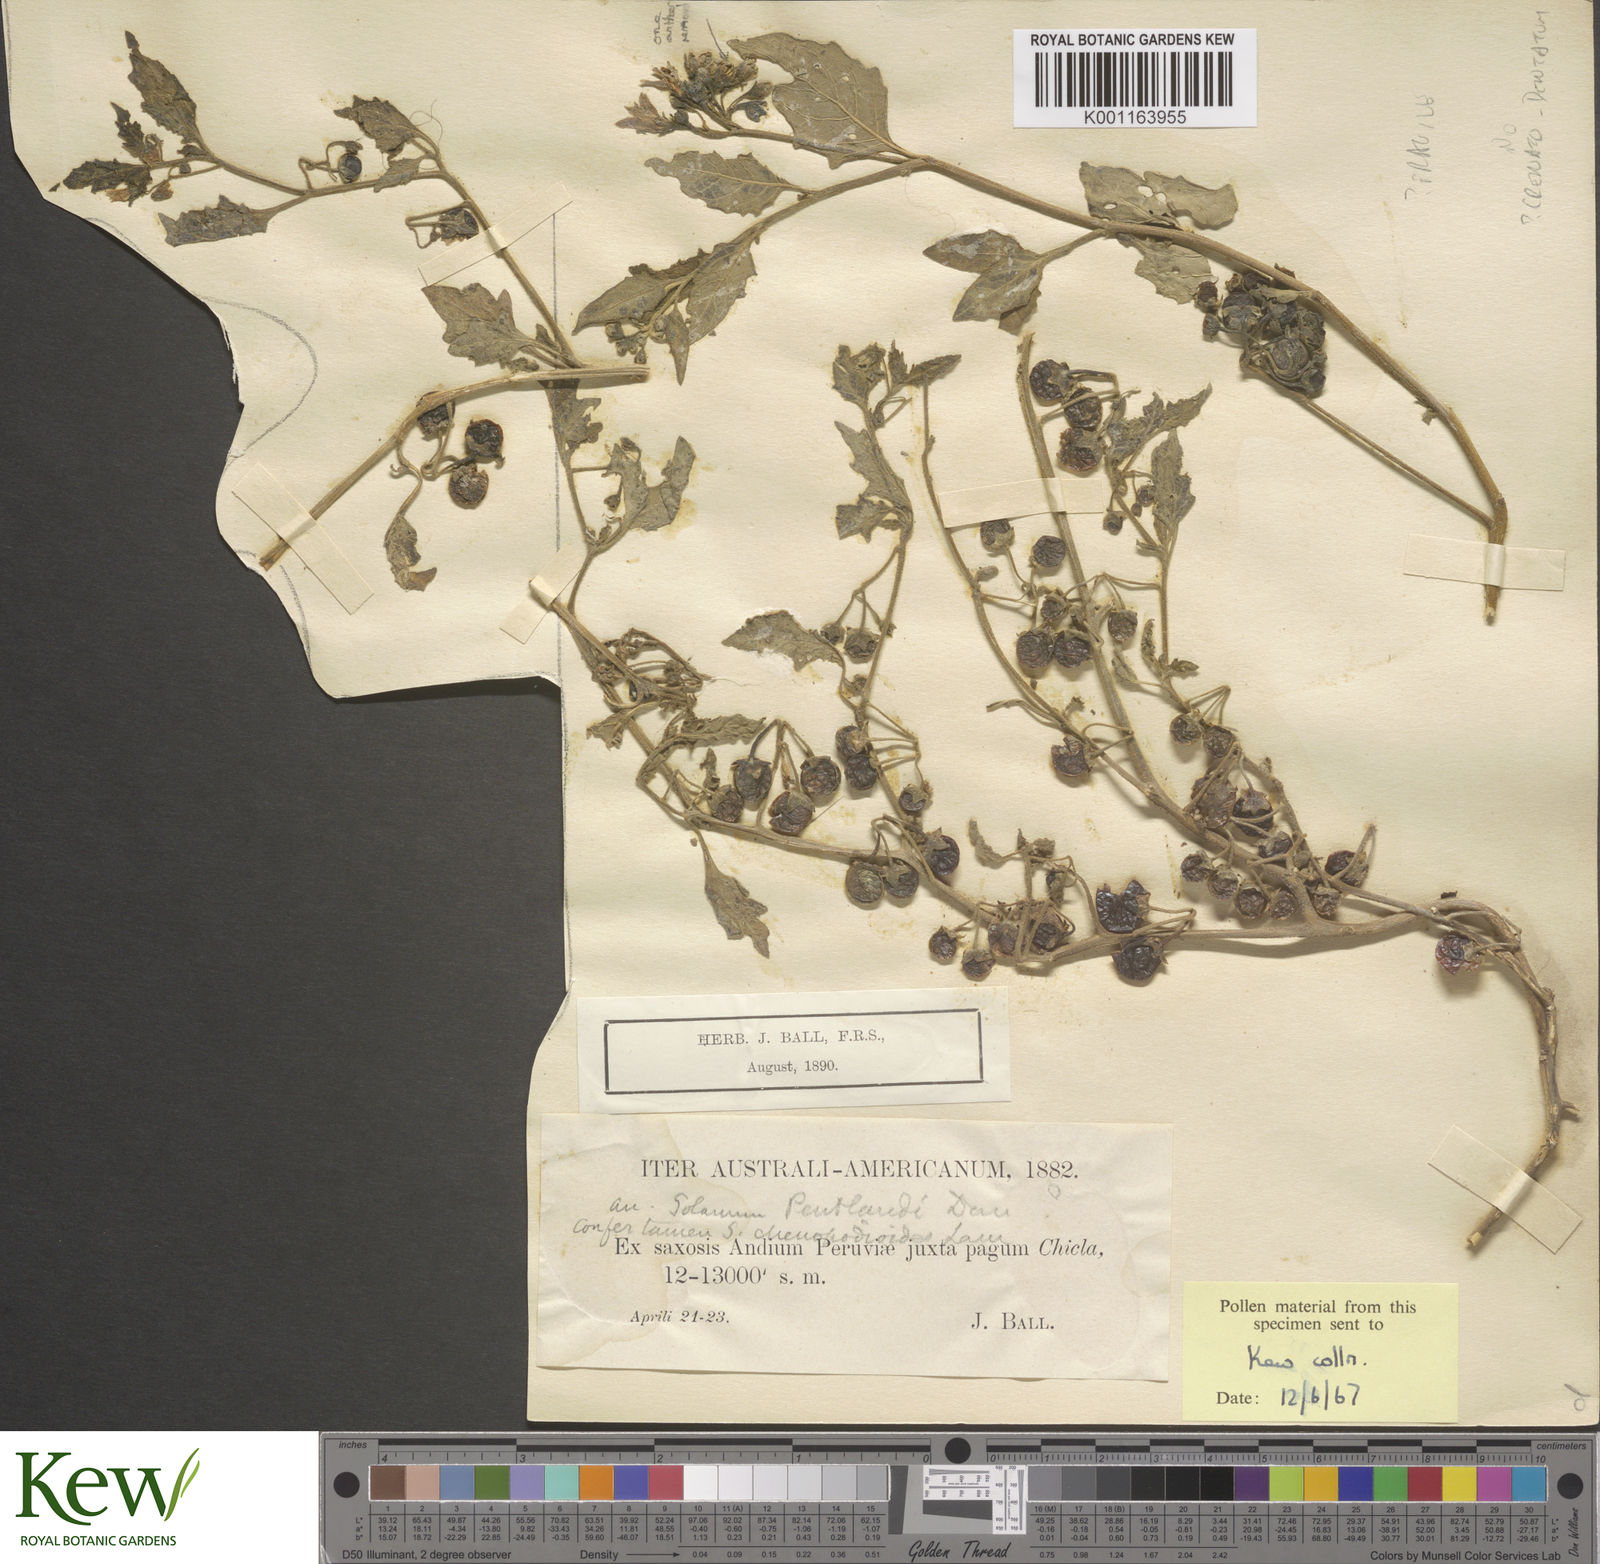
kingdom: Plantae
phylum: Tracheophyta
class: Magnoliopsida
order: Solanales
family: Solanaceae
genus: Solanum
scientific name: Solanum furcatum
